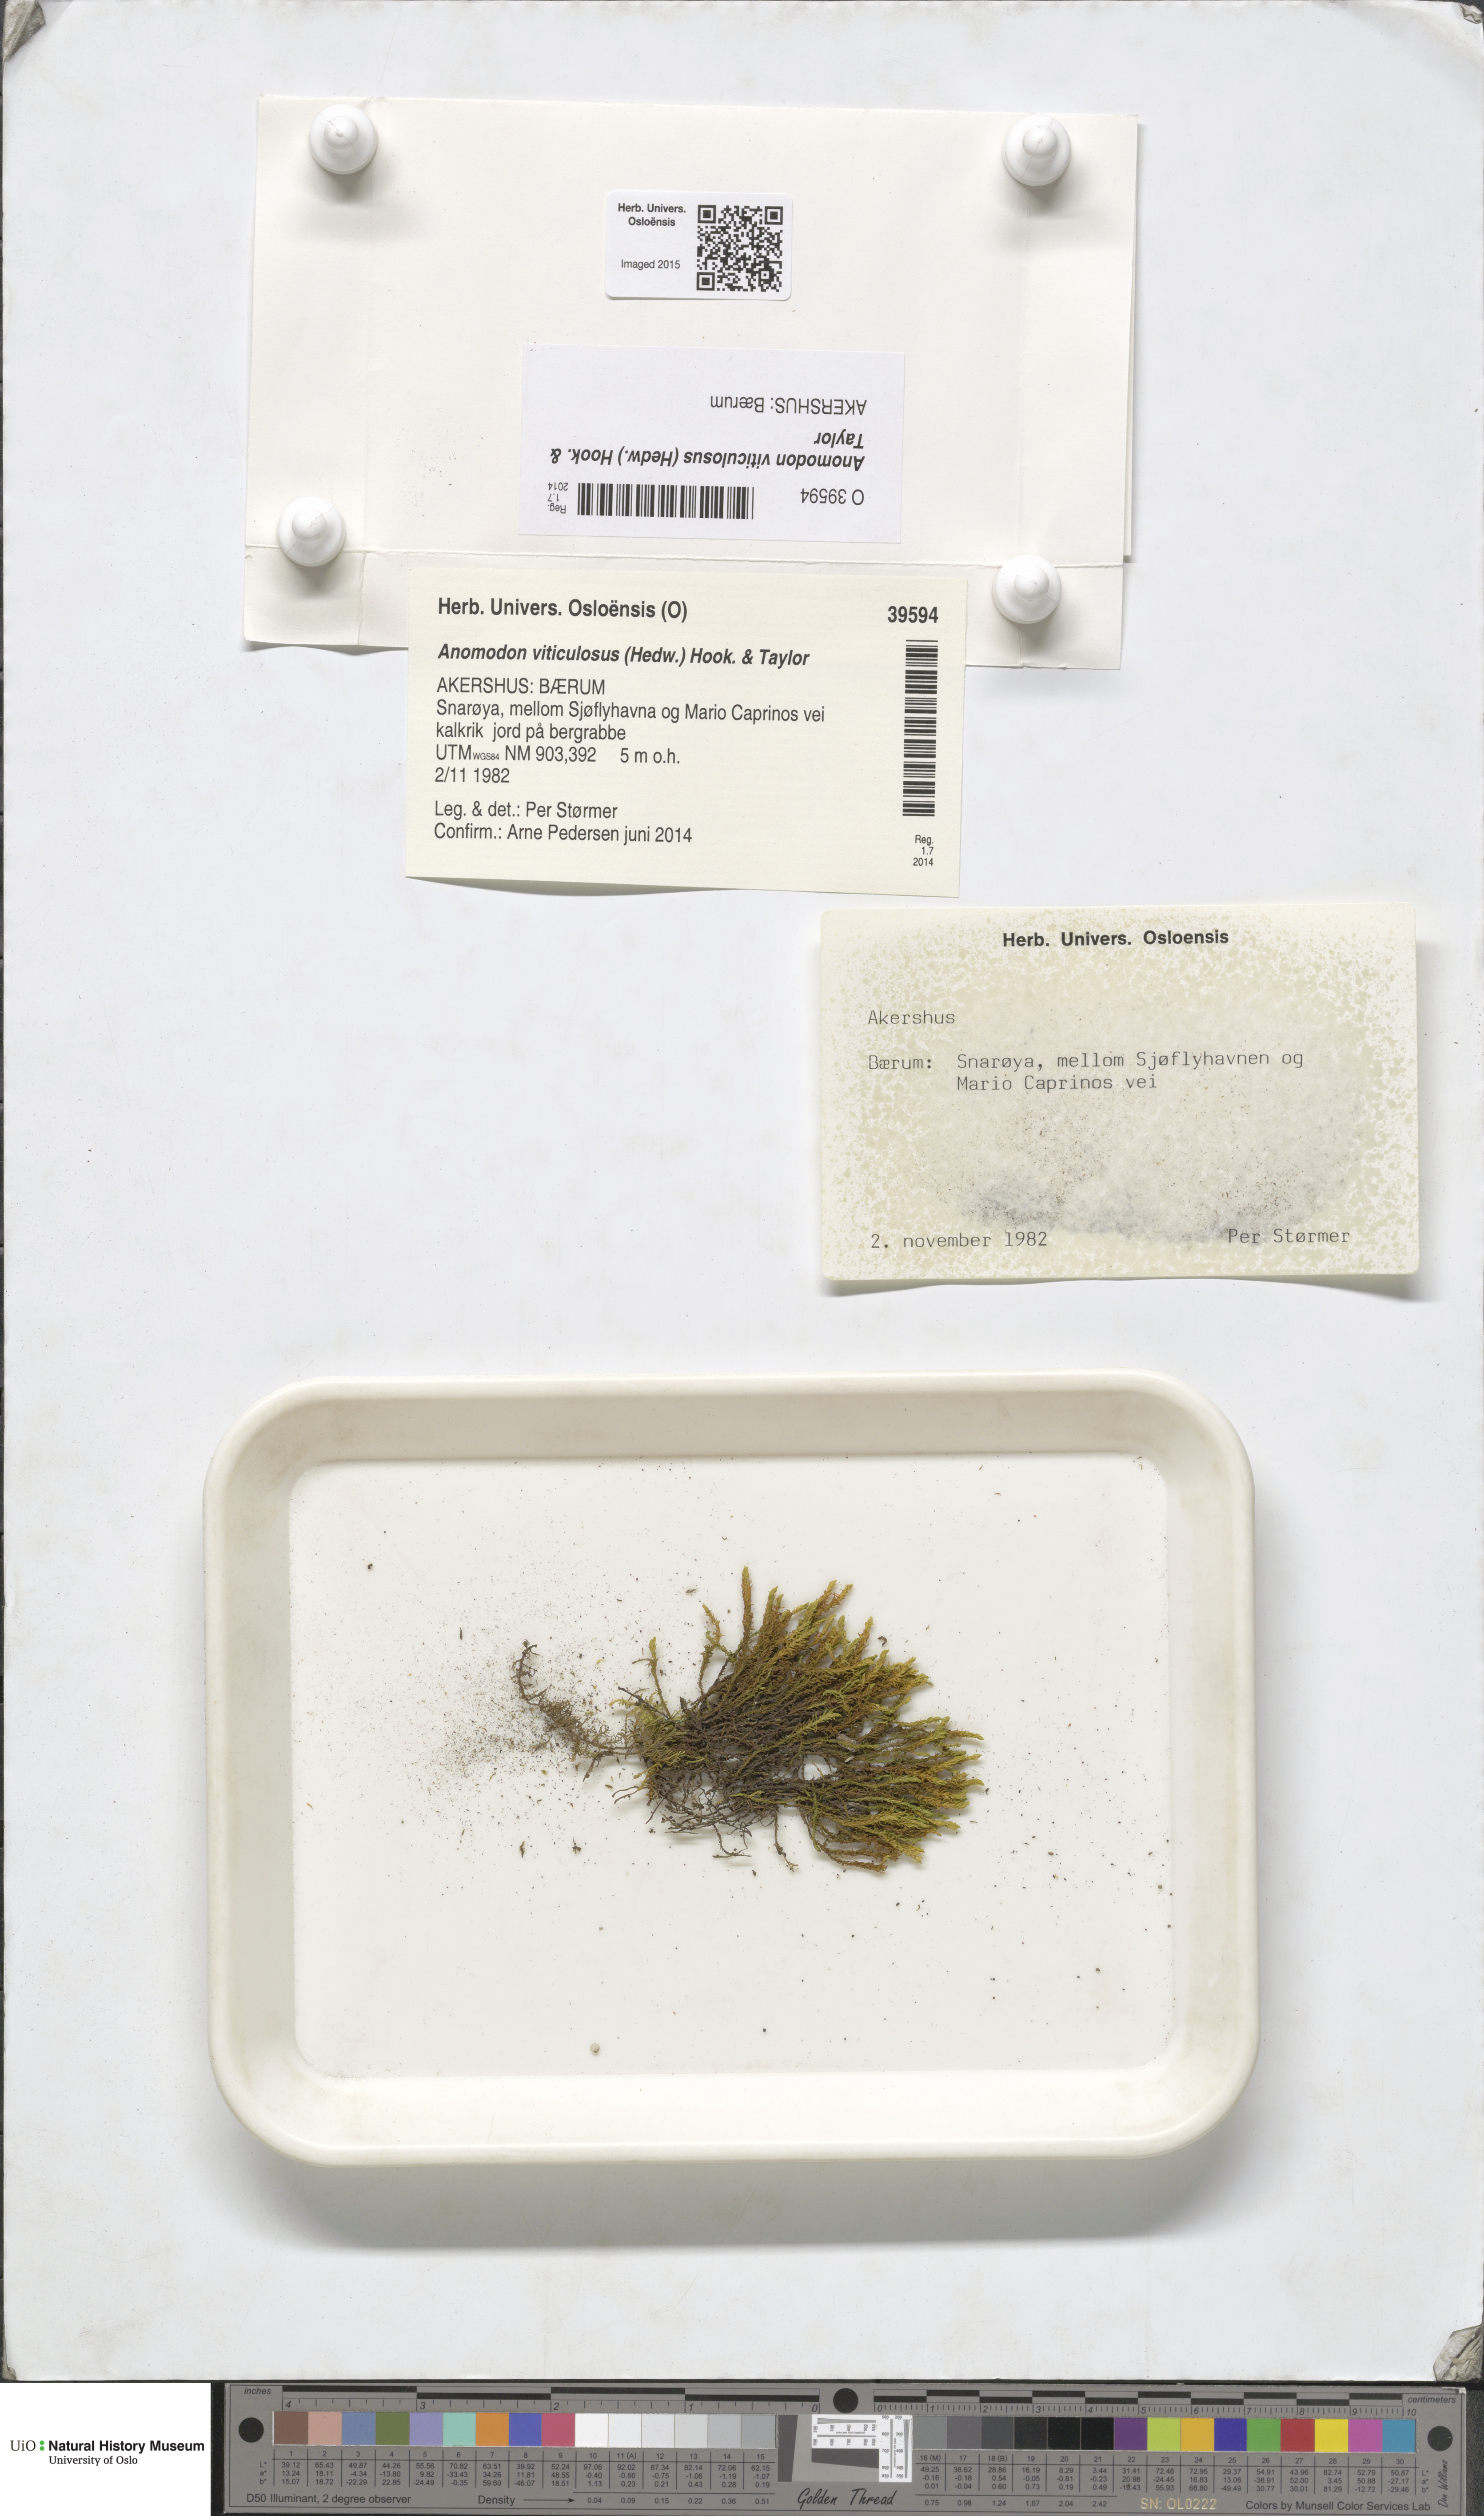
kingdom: Plantae
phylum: Bryophyta
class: Bryopsida
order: Hypnales
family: Anomodontaceae
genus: Anomodon
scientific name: Anomodon viticulosus
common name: Tall anomodon
